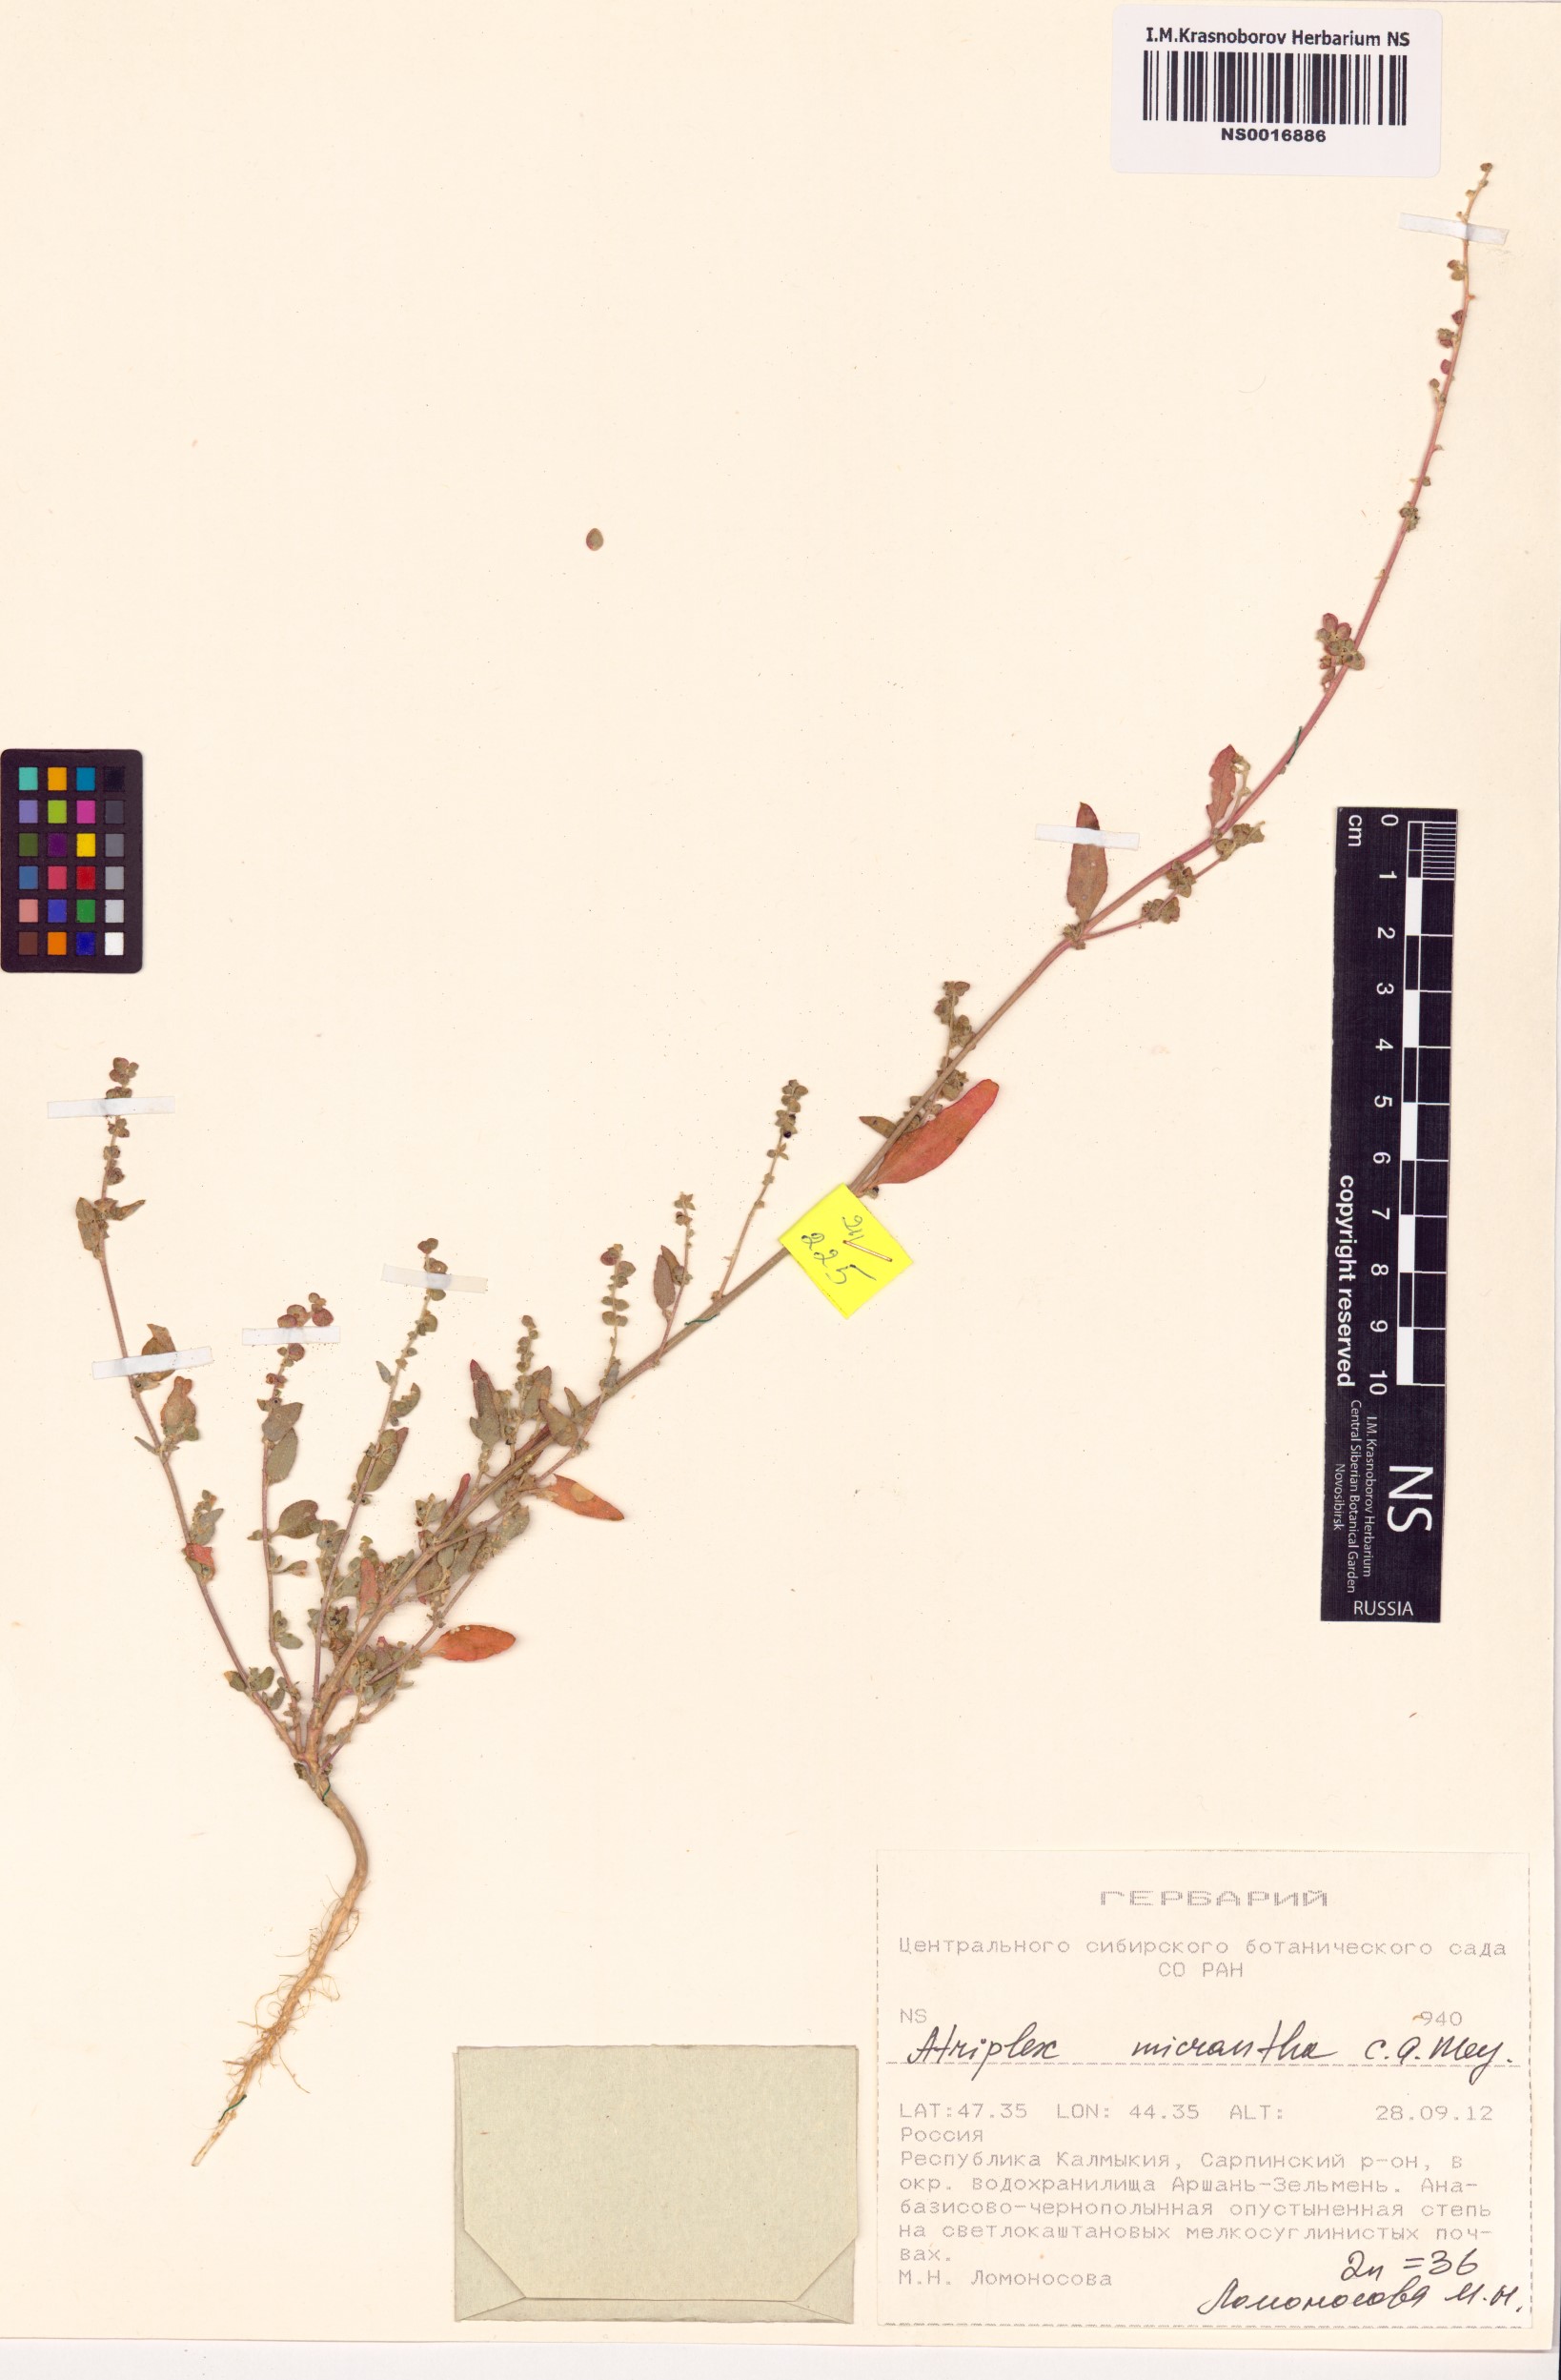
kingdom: Plantae
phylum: Tracheophyta
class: Magnoliopsida
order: Caryophyllales
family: Amaranthaceae
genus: Atriplex
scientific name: Atriplex micrantha
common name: Twoscale saltbush
